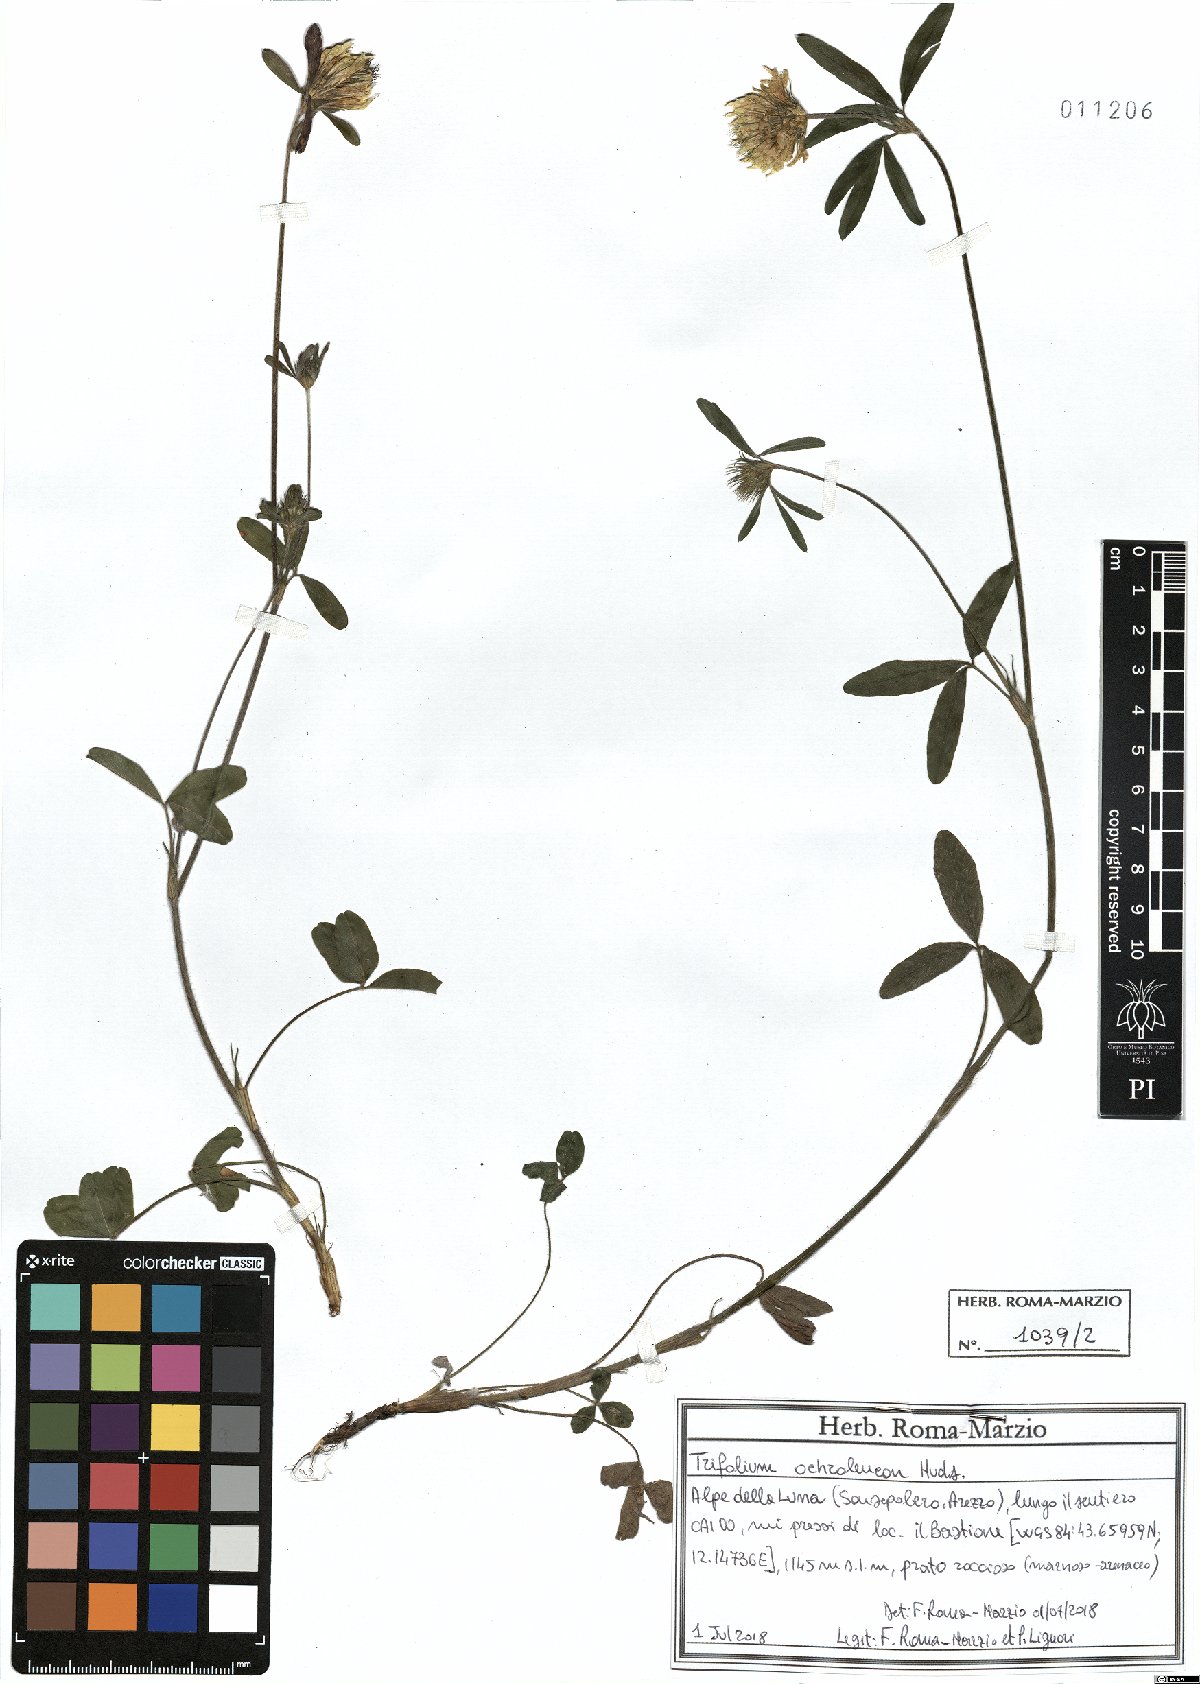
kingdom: Plantae
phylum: Tracheophyta
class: Magnoliopsida
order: Fabales
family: Fabaceae
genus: Trifolium
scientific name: Trifolium ochroleucon
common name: Sulphur clover
